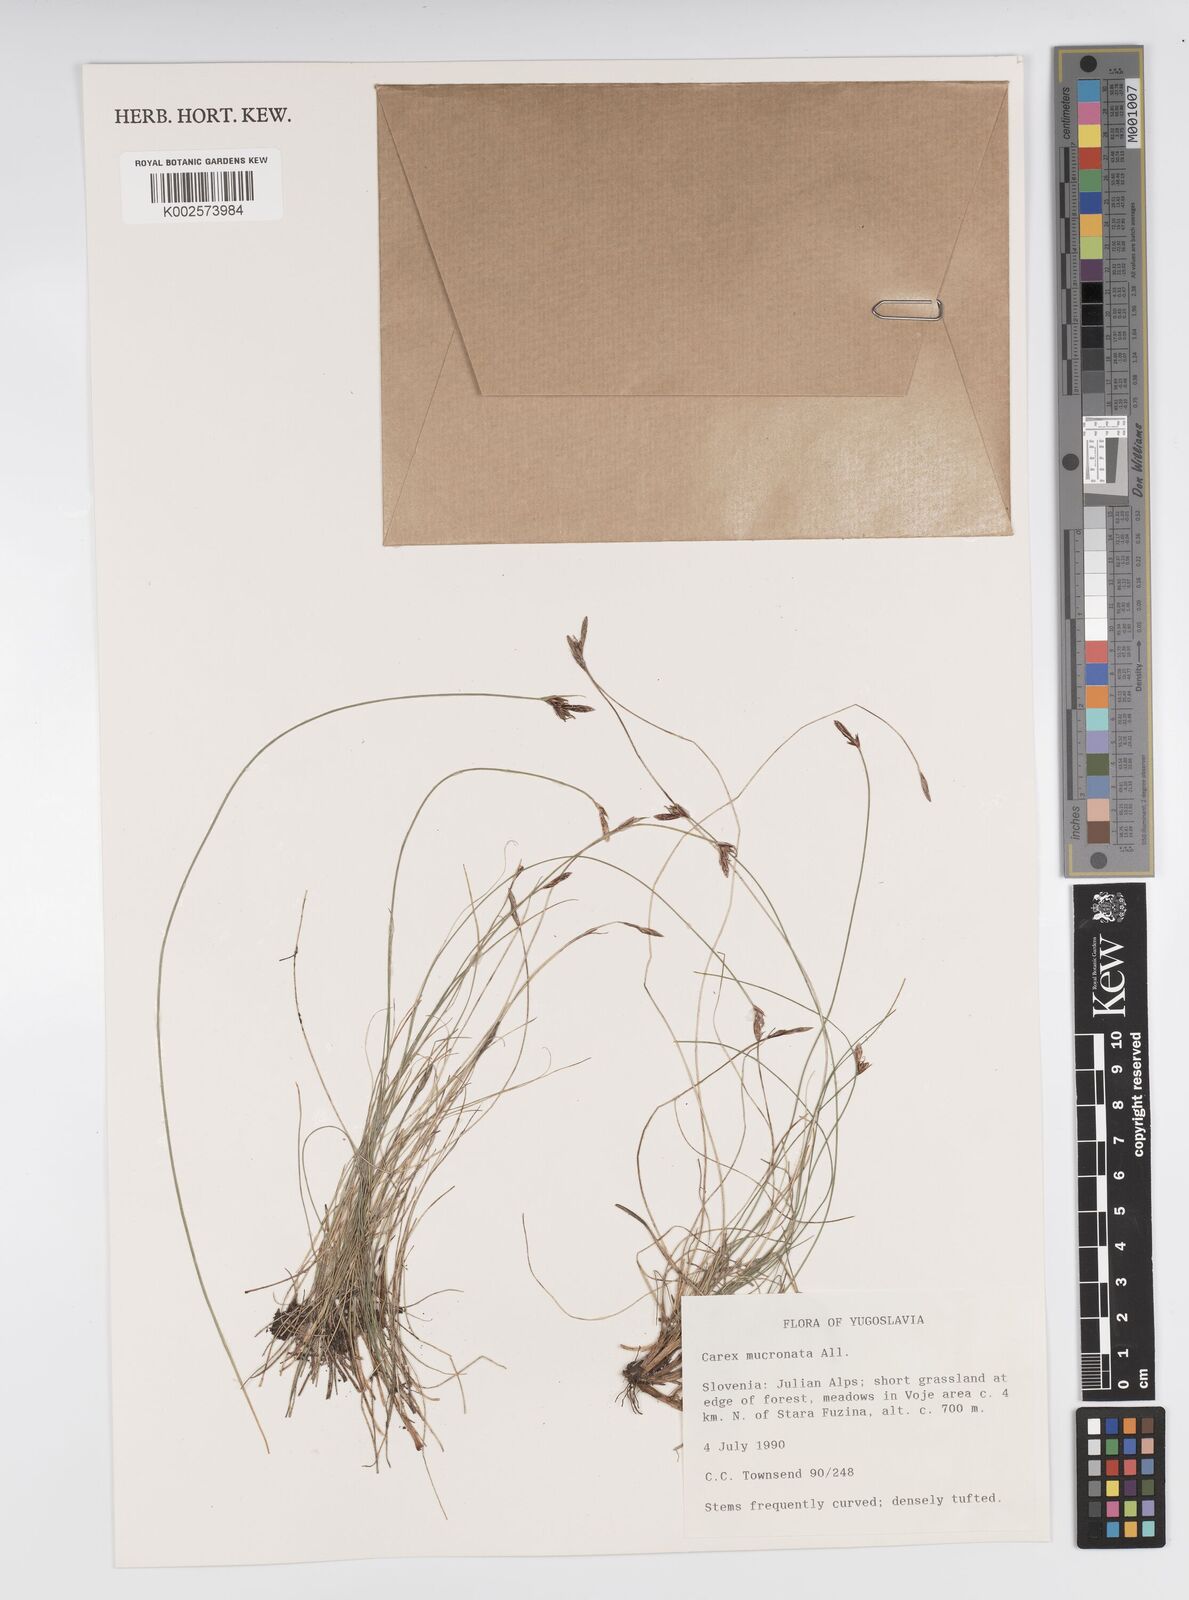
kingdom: Plantae
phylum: Tracheophyta
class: Liliopsida
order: Poales
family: Cyperaceae
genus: Carex
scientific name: Carex mucronata
